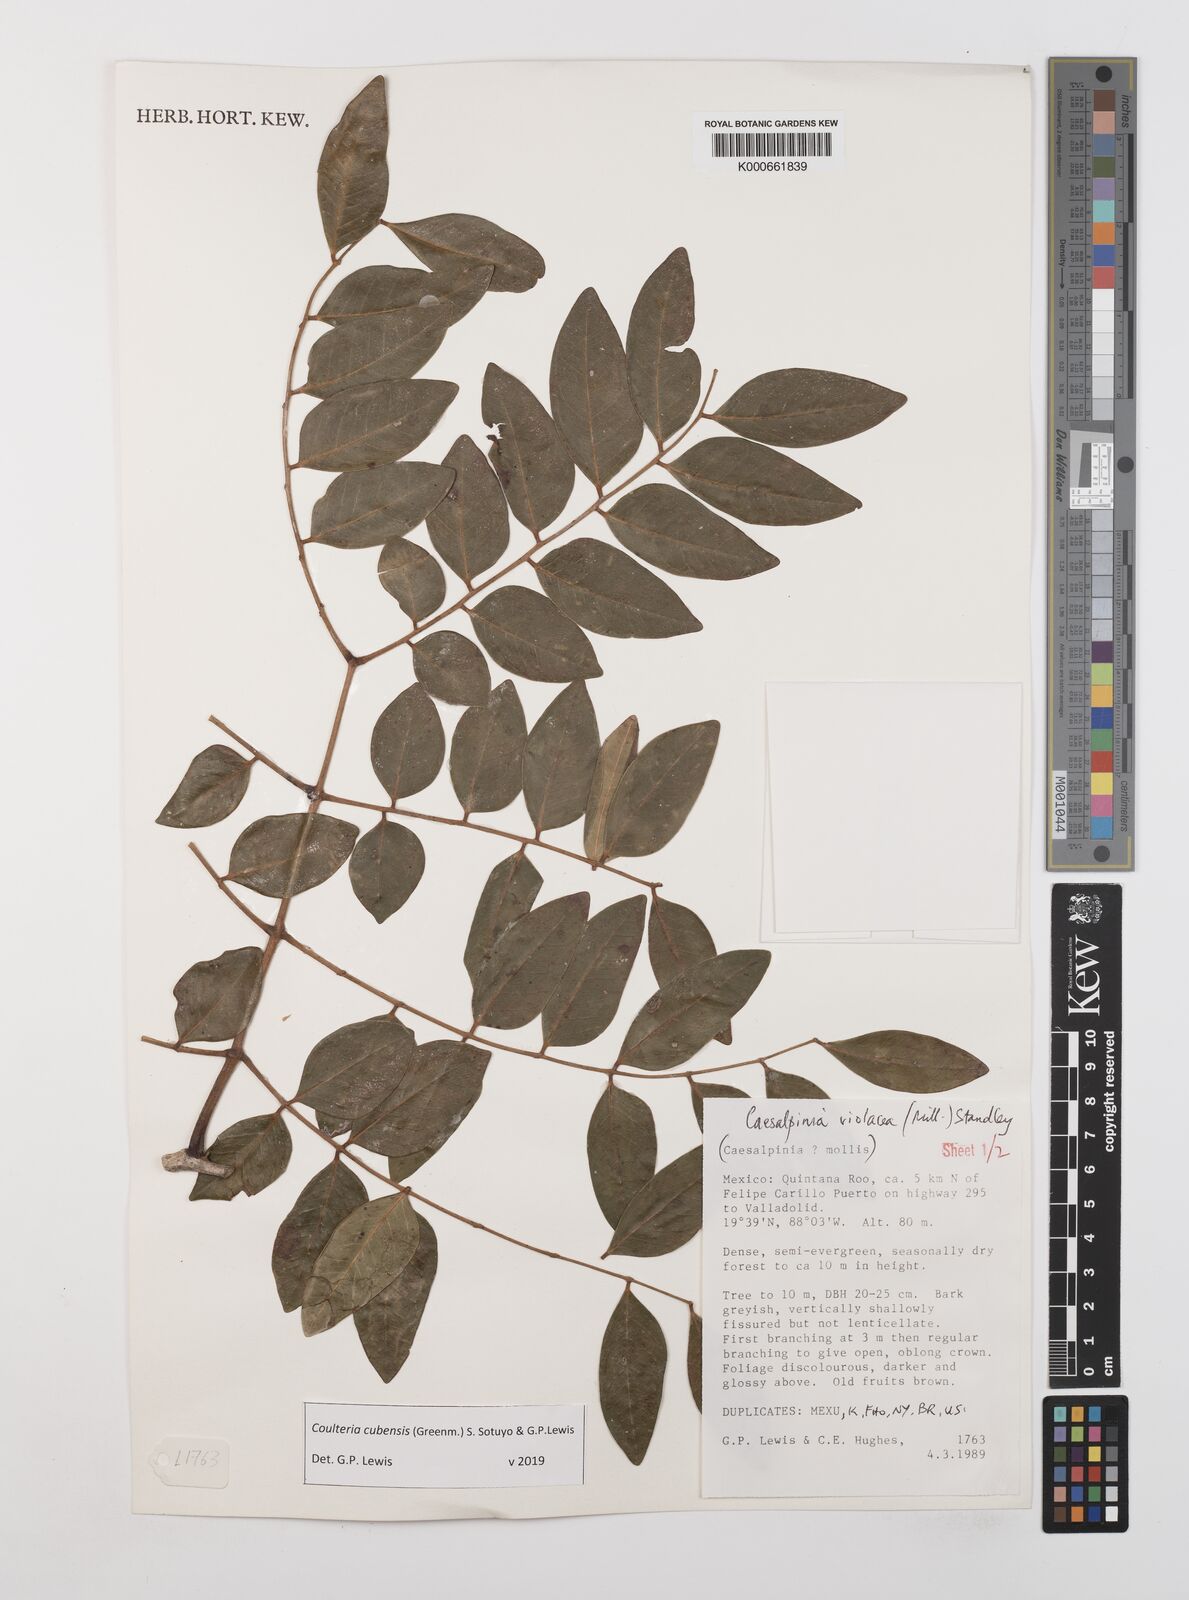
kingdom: Plantae
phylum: Tracheophyta
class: Magnoliopsida
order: Fabales
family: Fabaceae
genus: Coulteria
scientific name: Coulteria cubensis
